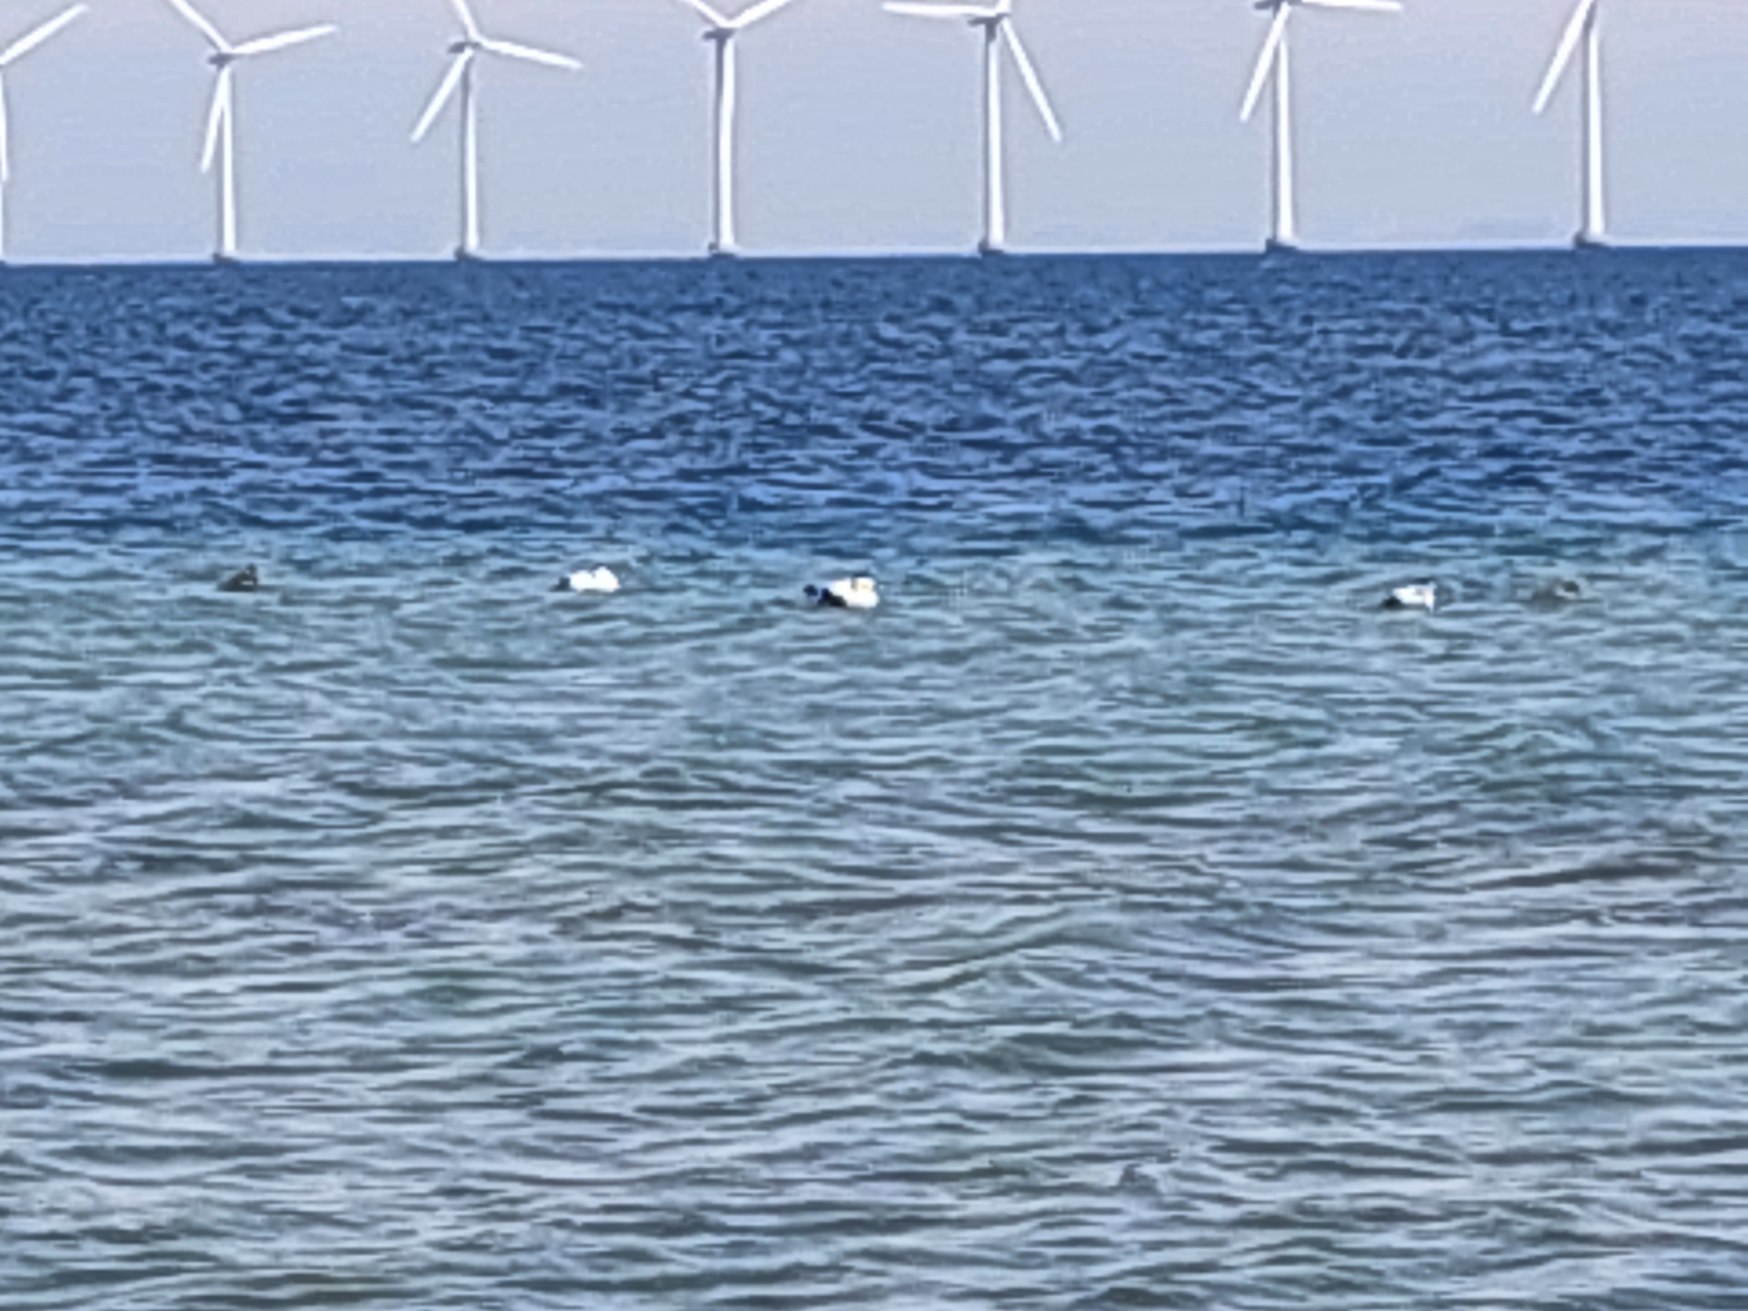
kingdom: Animalia
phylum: Chordata
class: Aves
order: Anseriformes
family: Anatidae
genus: Somateria
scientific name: Somateria mollissima
